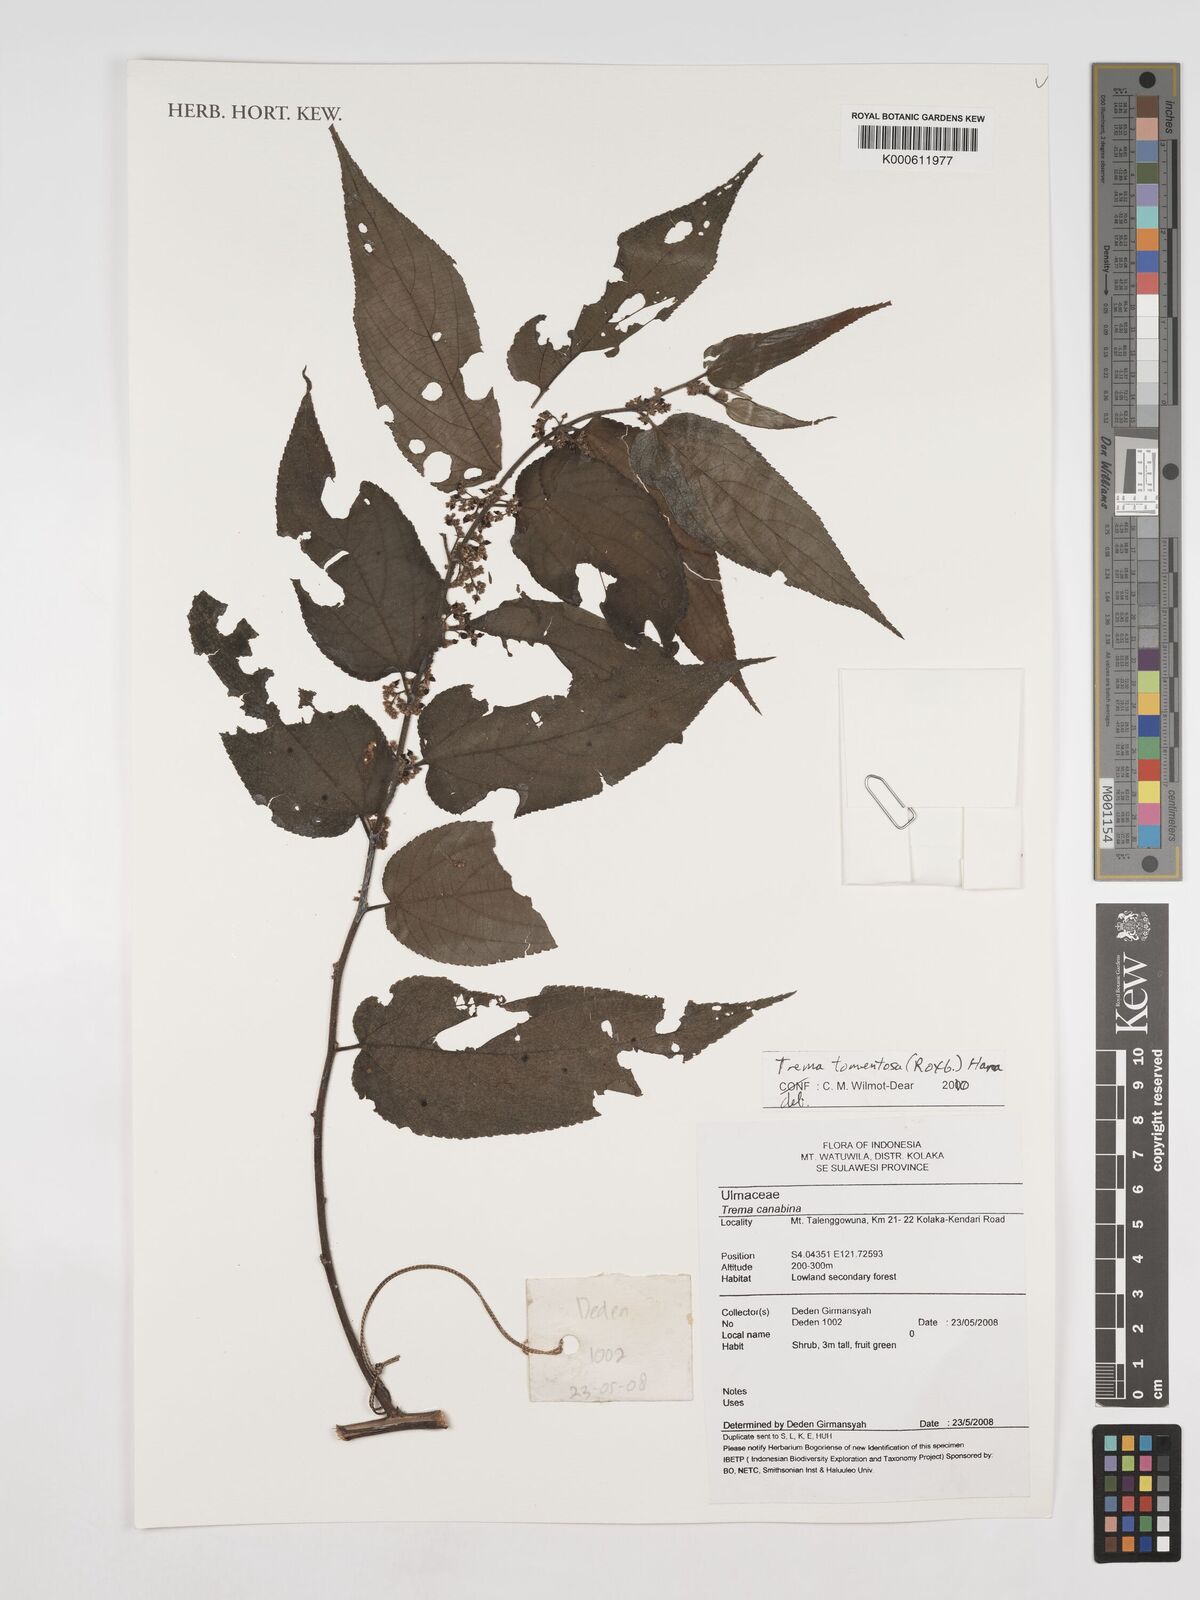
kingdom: Plantae
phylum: Tracheophyta
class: Magnoliopsida
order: Rosales
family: Cannabaceae
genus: Trema
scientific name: Trema tomentosum
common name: Peach-leaf-poisonbush
